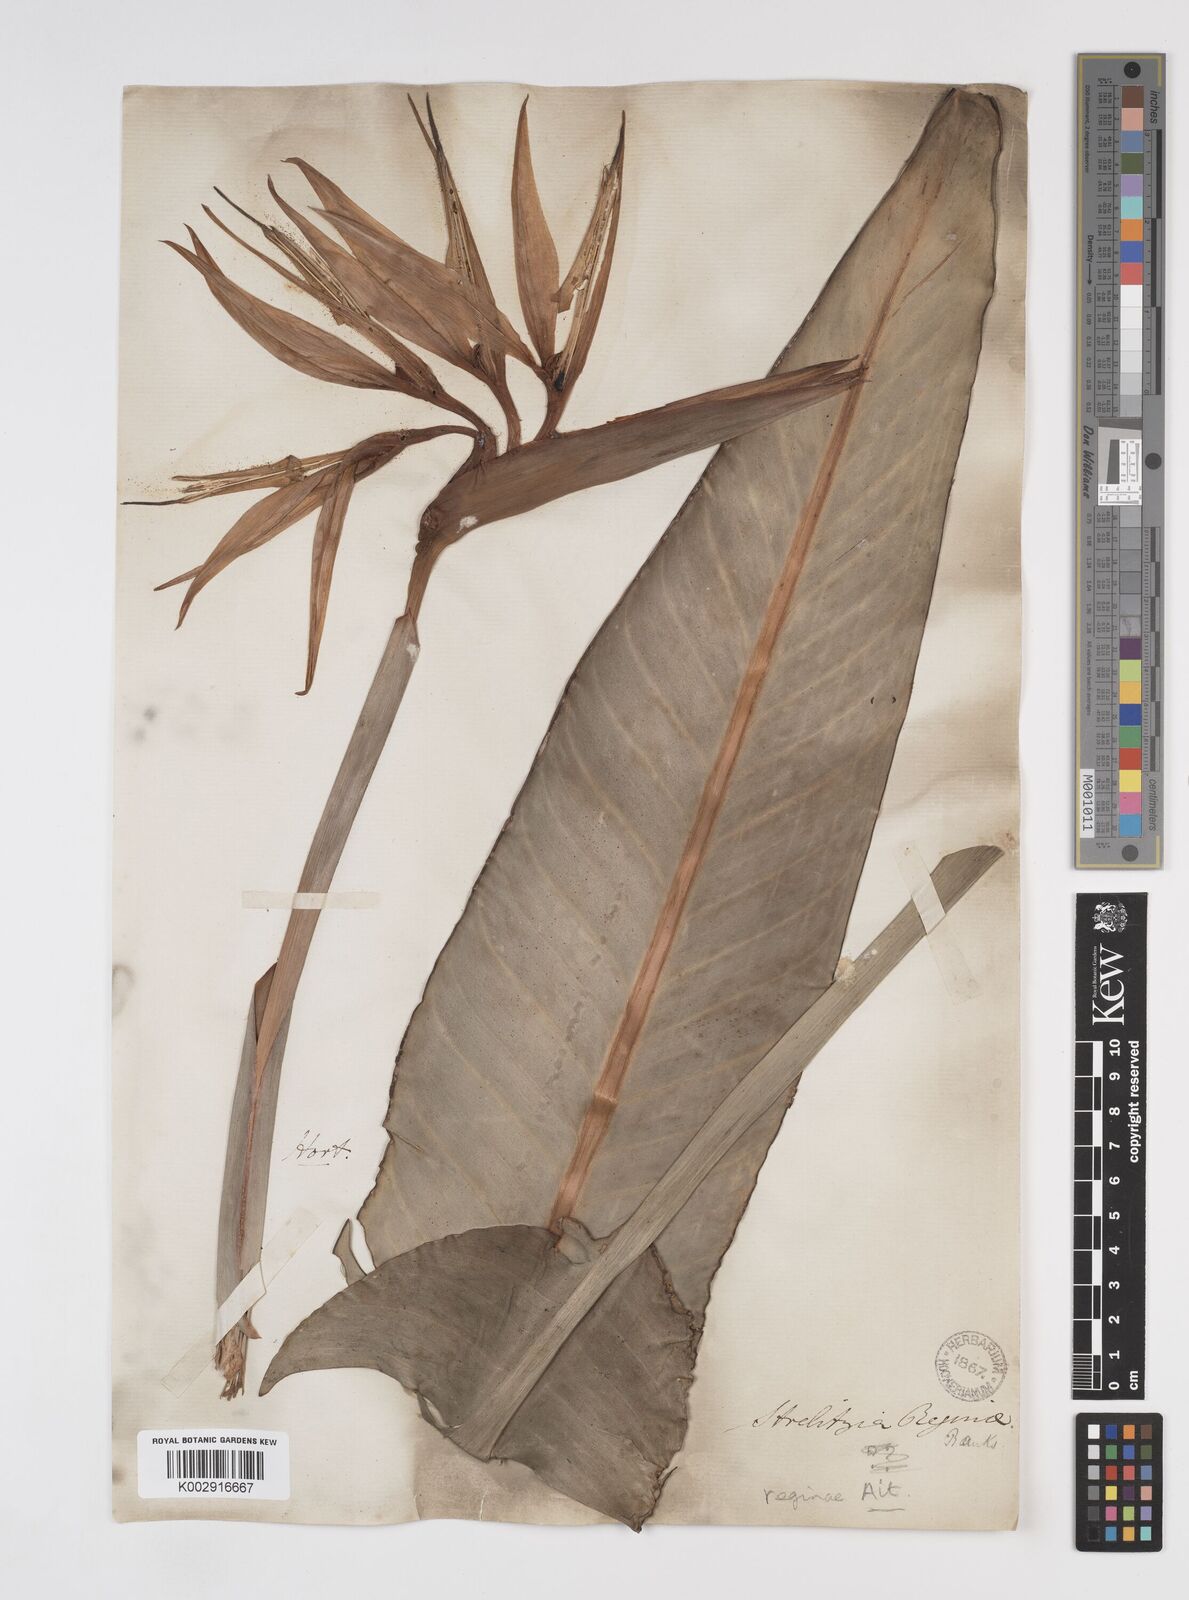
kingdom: Plantae
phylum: Tracheophyta
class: Liliopsida
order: Zingiberales
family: Strelitziaceae
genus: Strelitzia
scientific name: Strelitzia reginae
